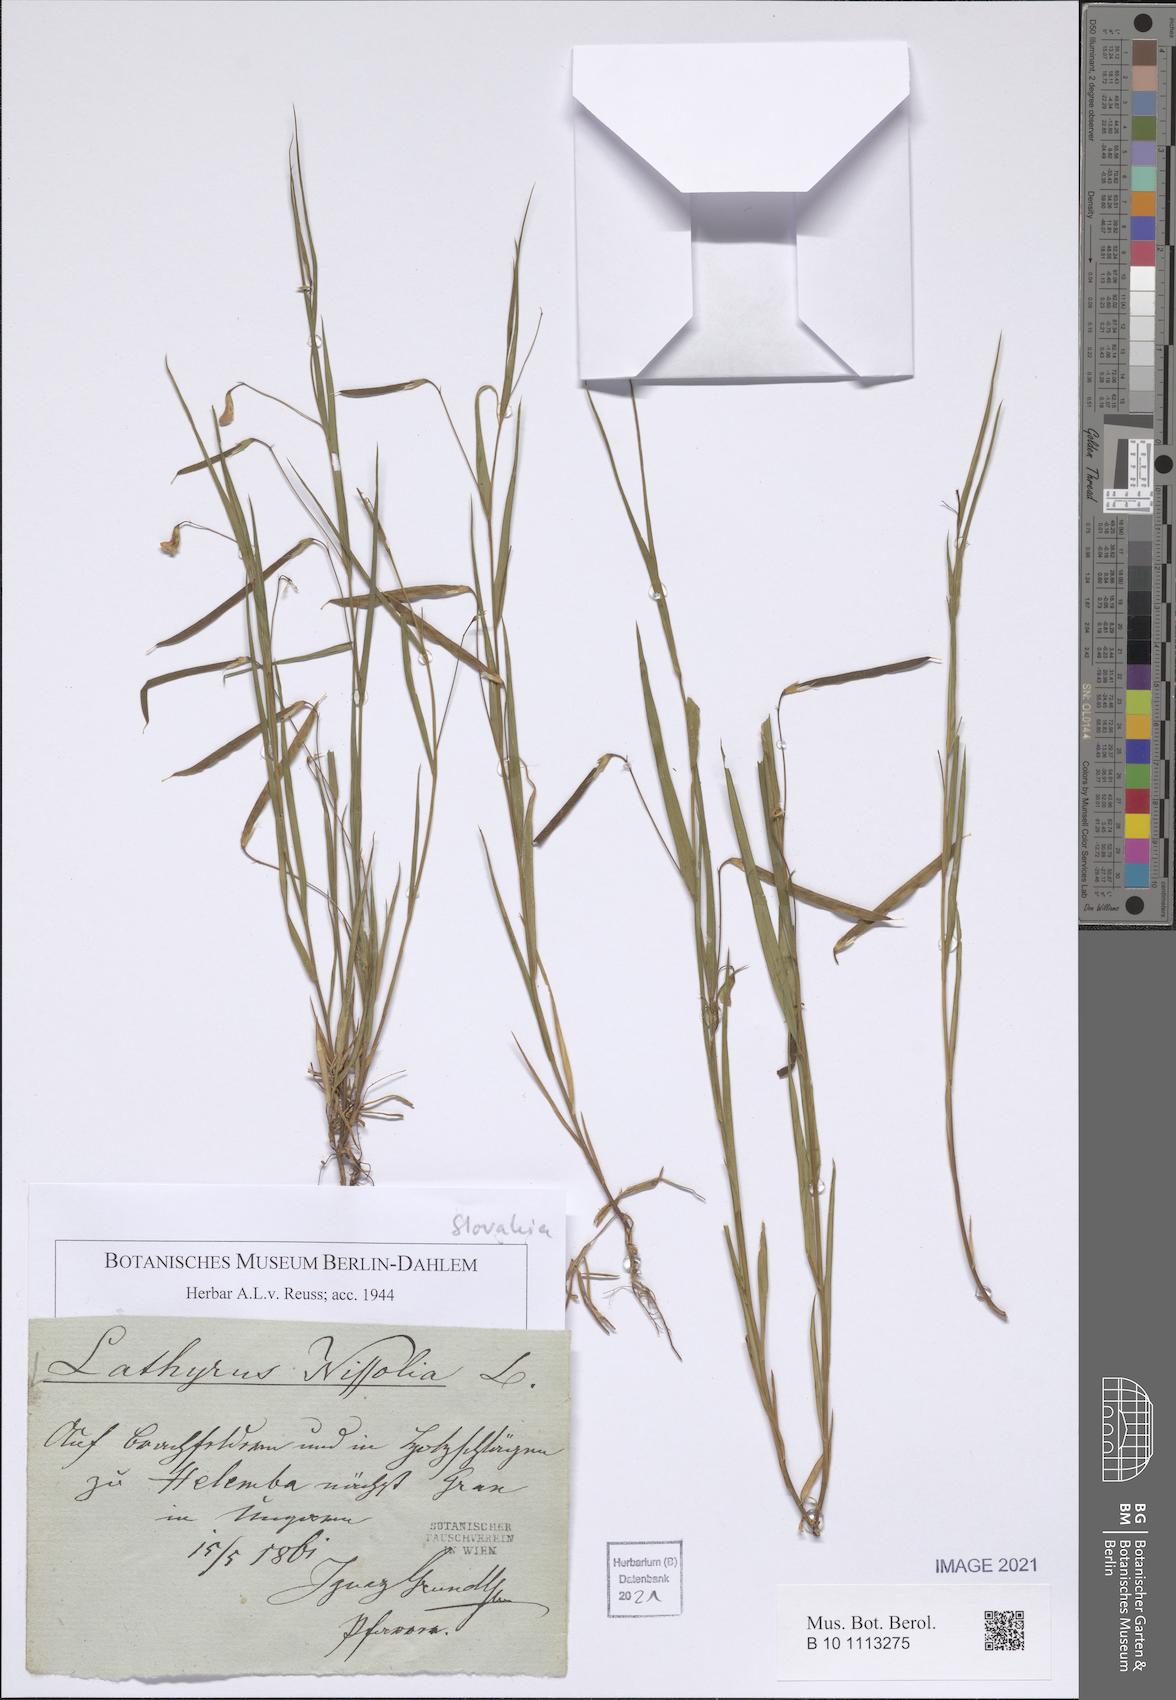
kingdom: Plantae
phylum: Tracheophyta
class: Magnoliopsida
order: Fabales
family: Fabaceae
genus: Lathyrus
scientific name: Lathyrus nissolia
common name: Grass vetchling
